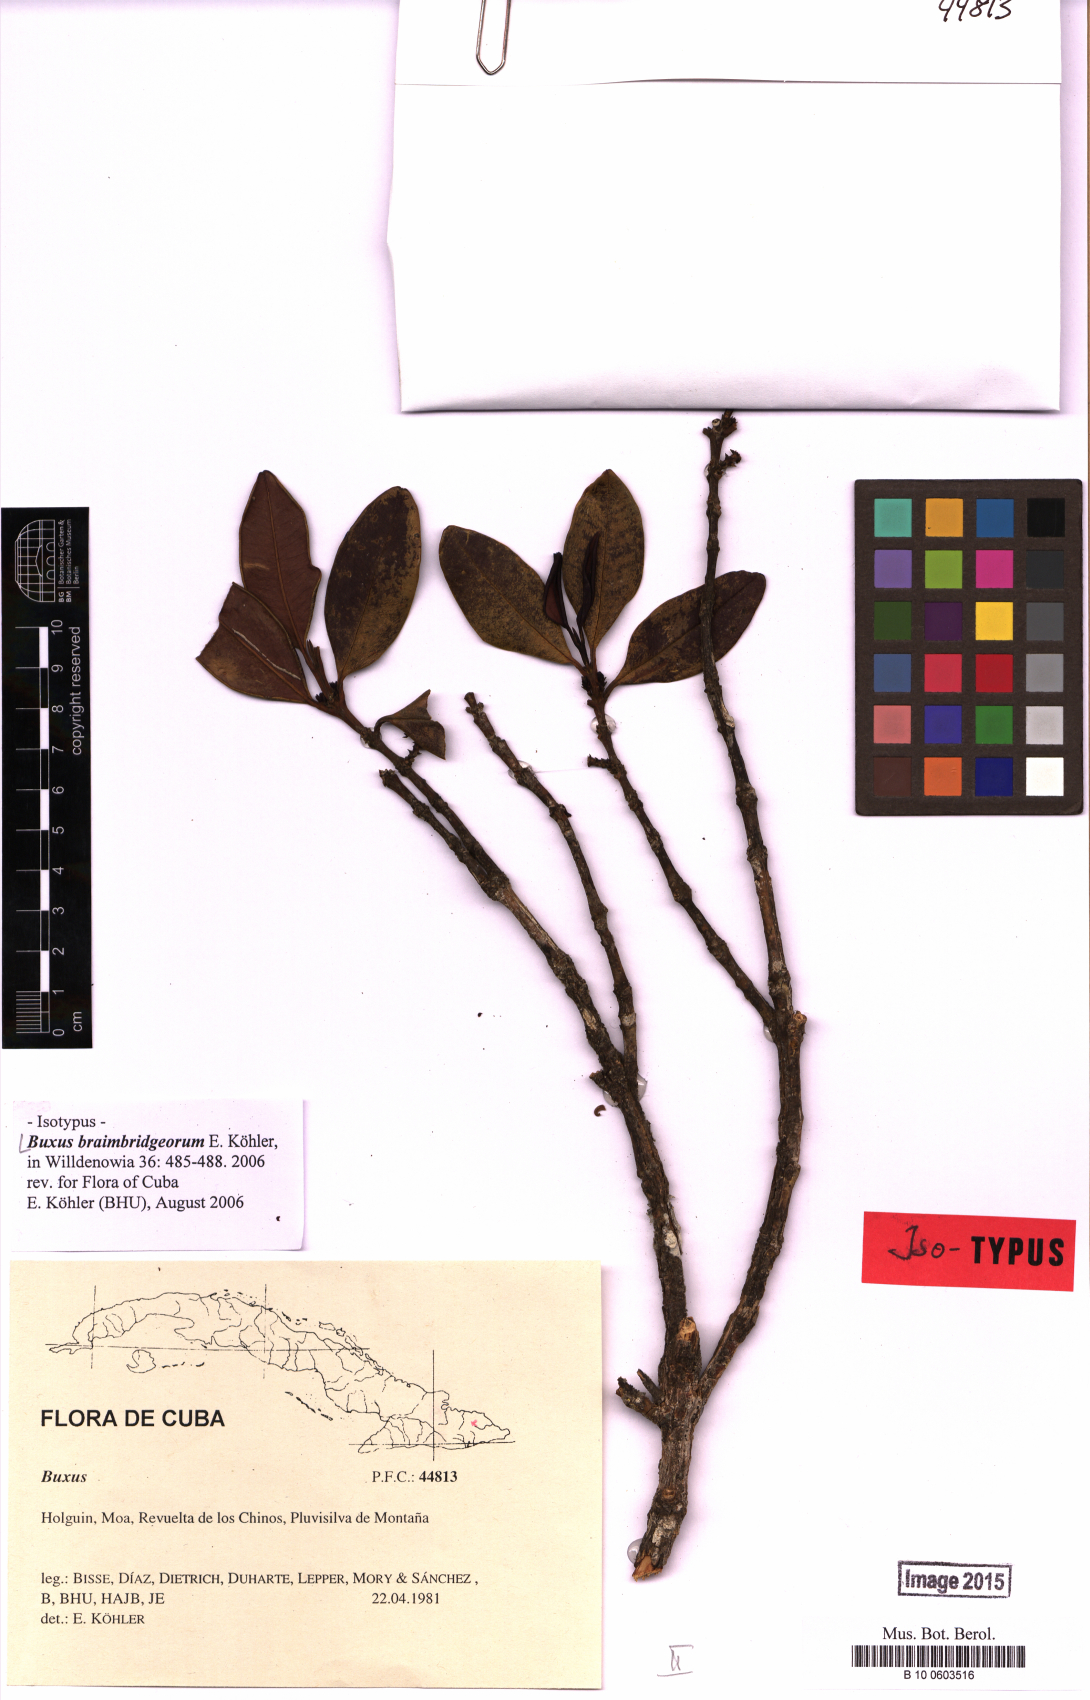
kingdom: Plantae
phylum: Tracheophyta
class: Magnoliopsida
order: Buxales
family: Buxaceae
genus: Buxus
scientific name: Buxus braimbridgeorum
